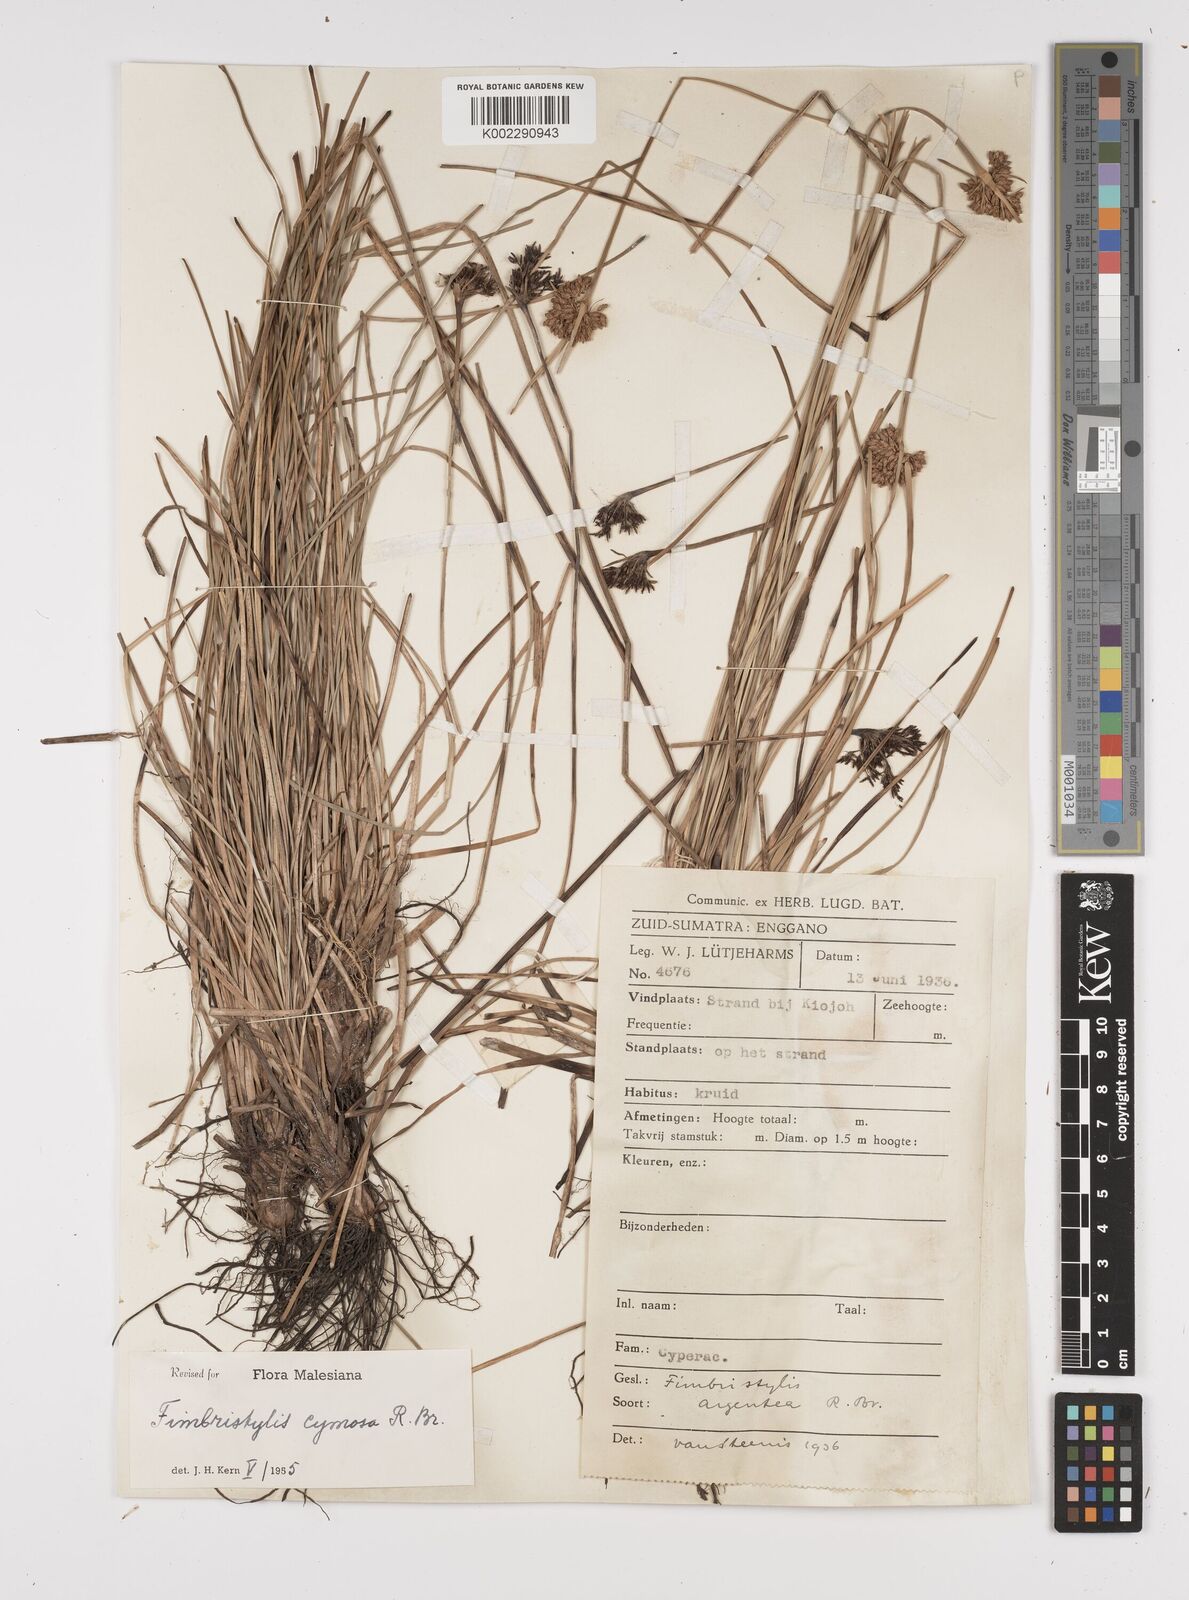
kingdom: Plantae
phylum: Tracheophyta
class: Liliopsida
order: Poales
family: Cyperaceae
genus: Fimbristylis
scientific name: Fimbristylis cymosa
